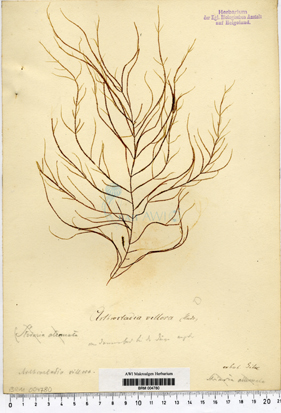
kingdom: Chromista
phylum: Ochrophyta
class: Phaeophyceae
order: Desmarestiales
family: Arthrocladiaceae
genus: Arthrocladia
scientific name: Arthrocladia villosa
